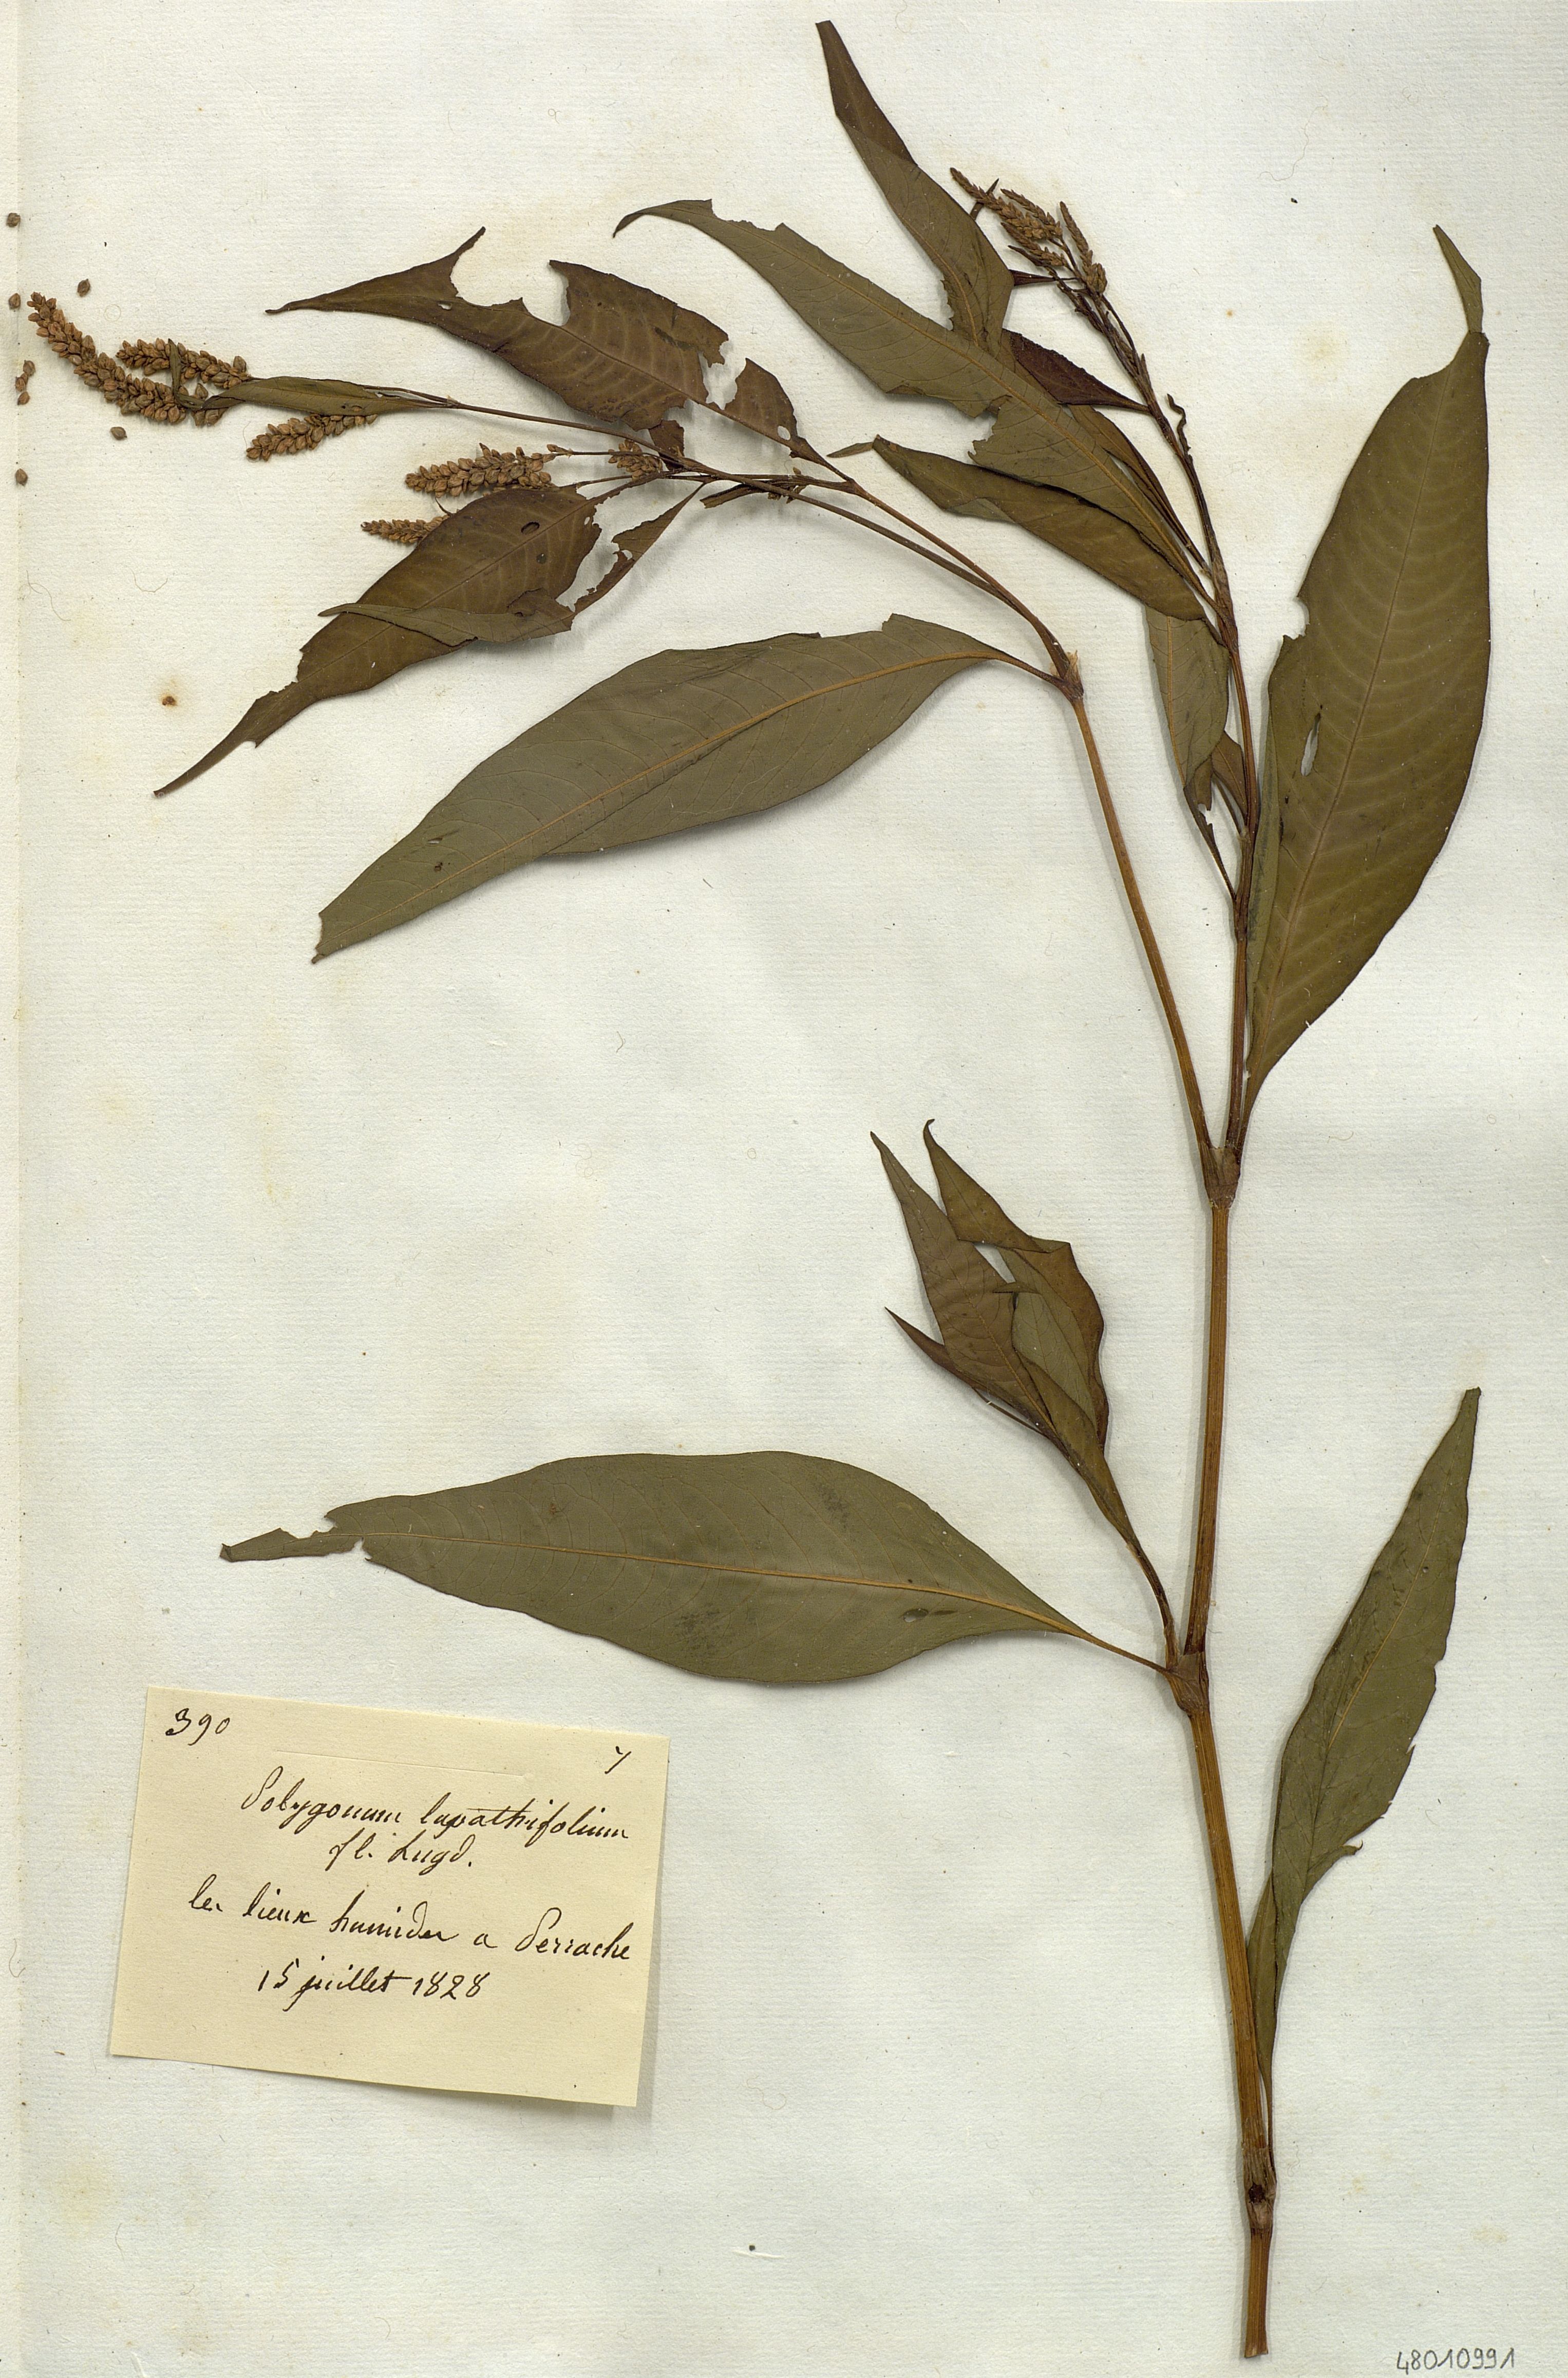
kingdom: Plantae
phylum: Tracheophyta
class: Magnoliopsida
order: Caryophyllales
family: Polygonaceae
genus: Persicaria
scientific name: Persicaria
